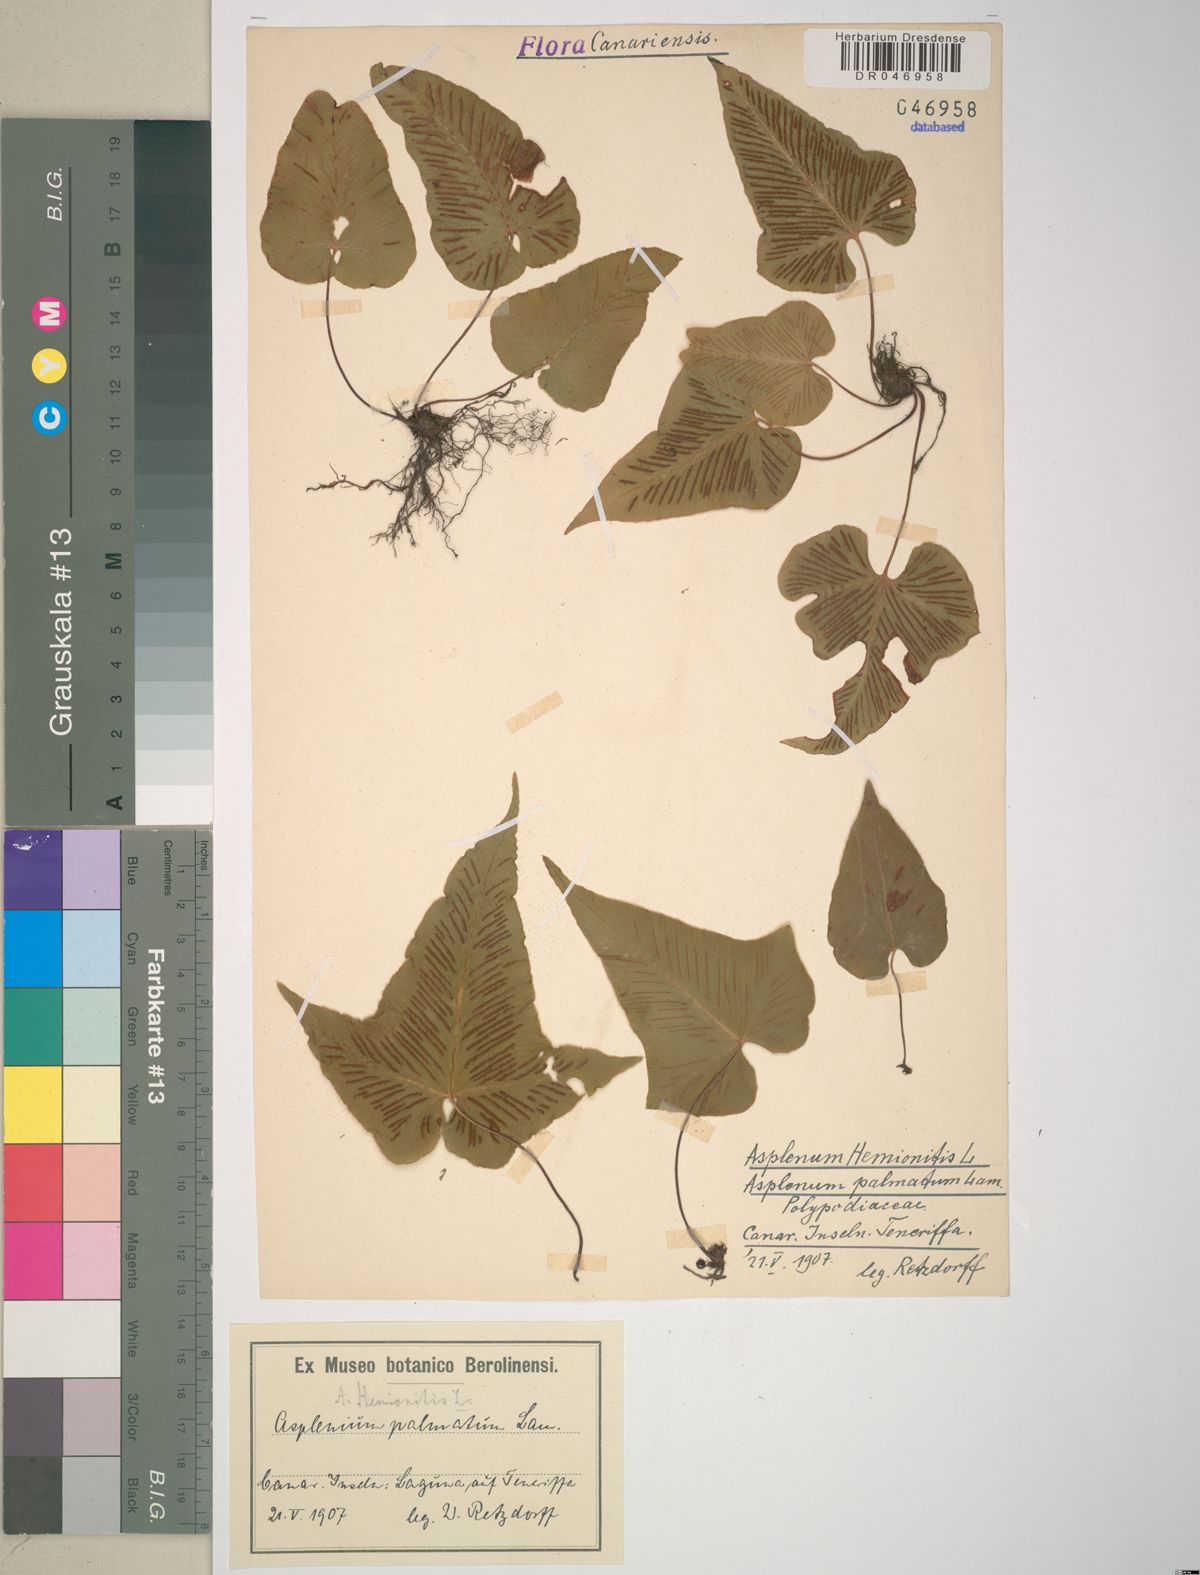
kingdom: Plantae
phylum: Tracheophyta
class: Polypodiopsida
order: Polypodiales
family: Aspleniaceae
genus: Asplenium
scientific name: Asplenium hemionitis
